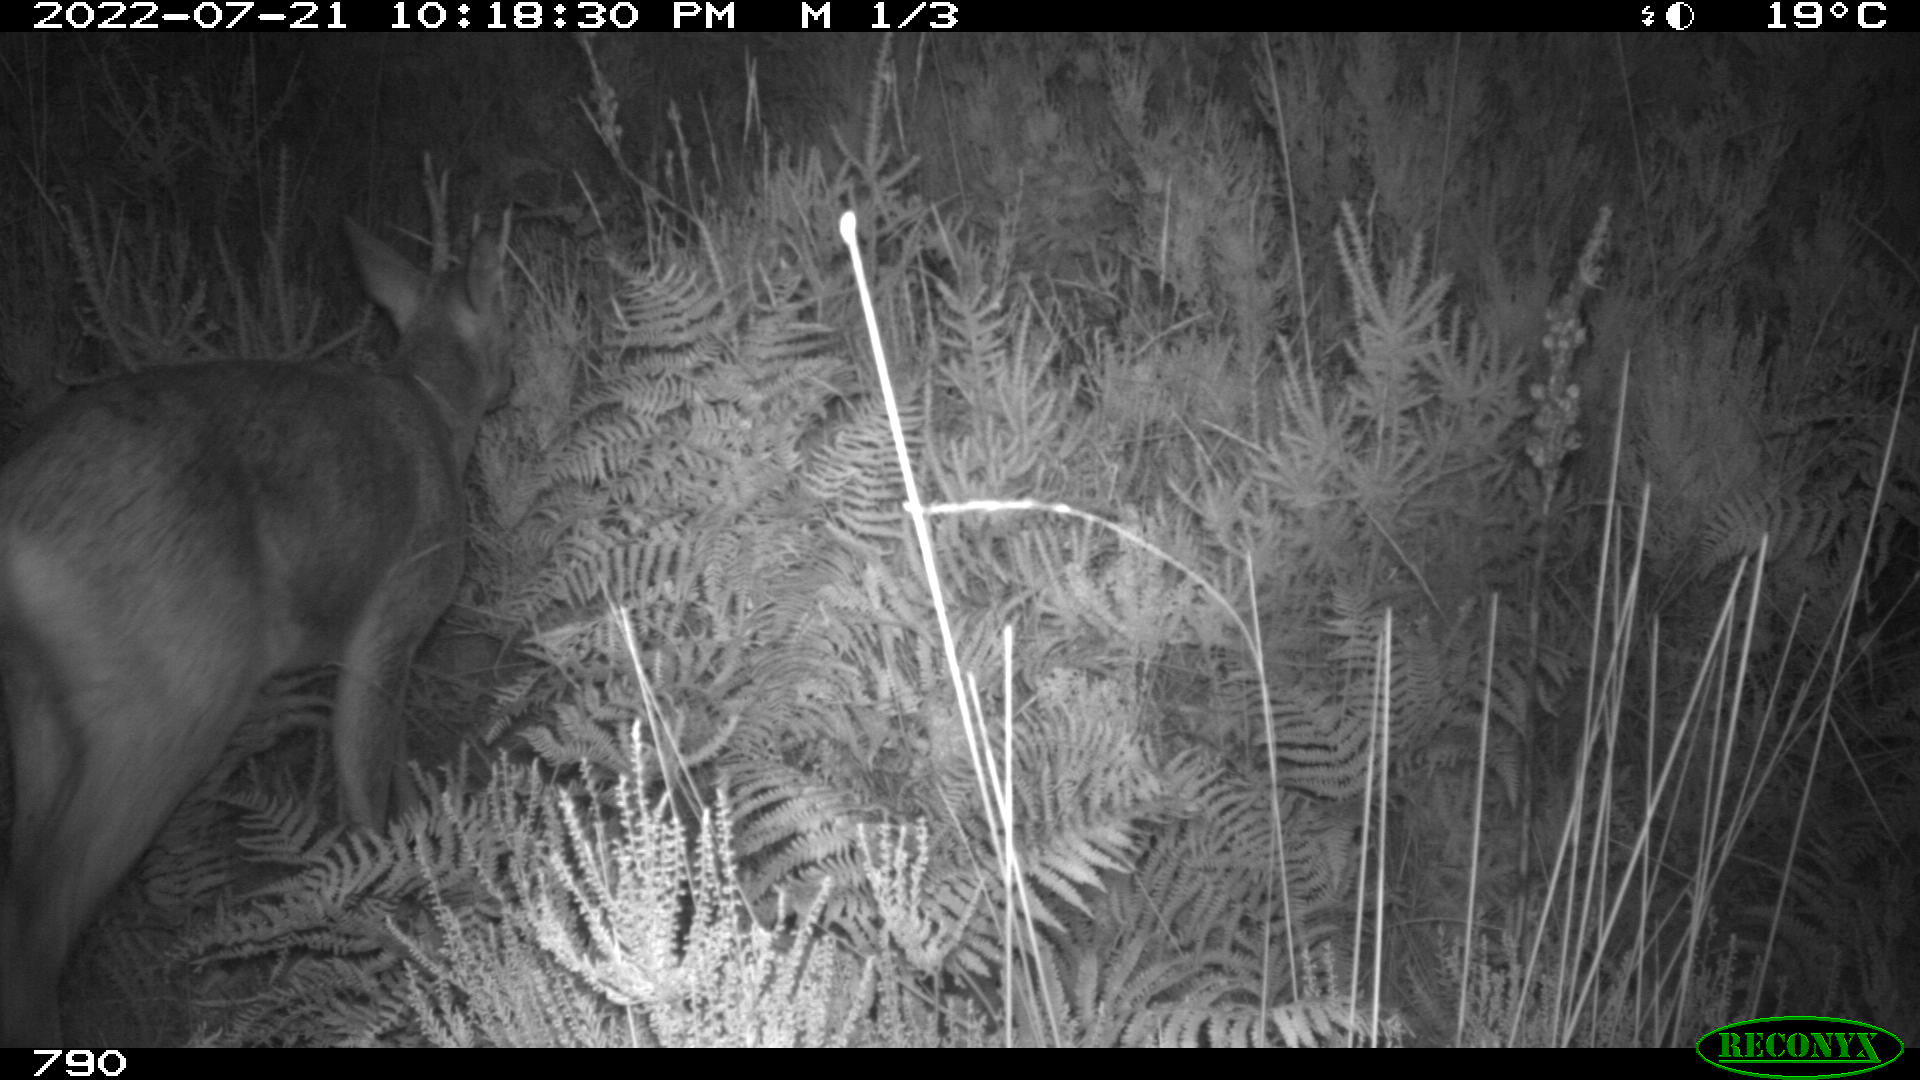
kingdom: Animalia
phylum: Chordata
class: Mammalia
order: Artiodactyla
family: Cervidae
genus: Capreolus
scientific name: Capreolus capreolus
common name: Western roe deer
